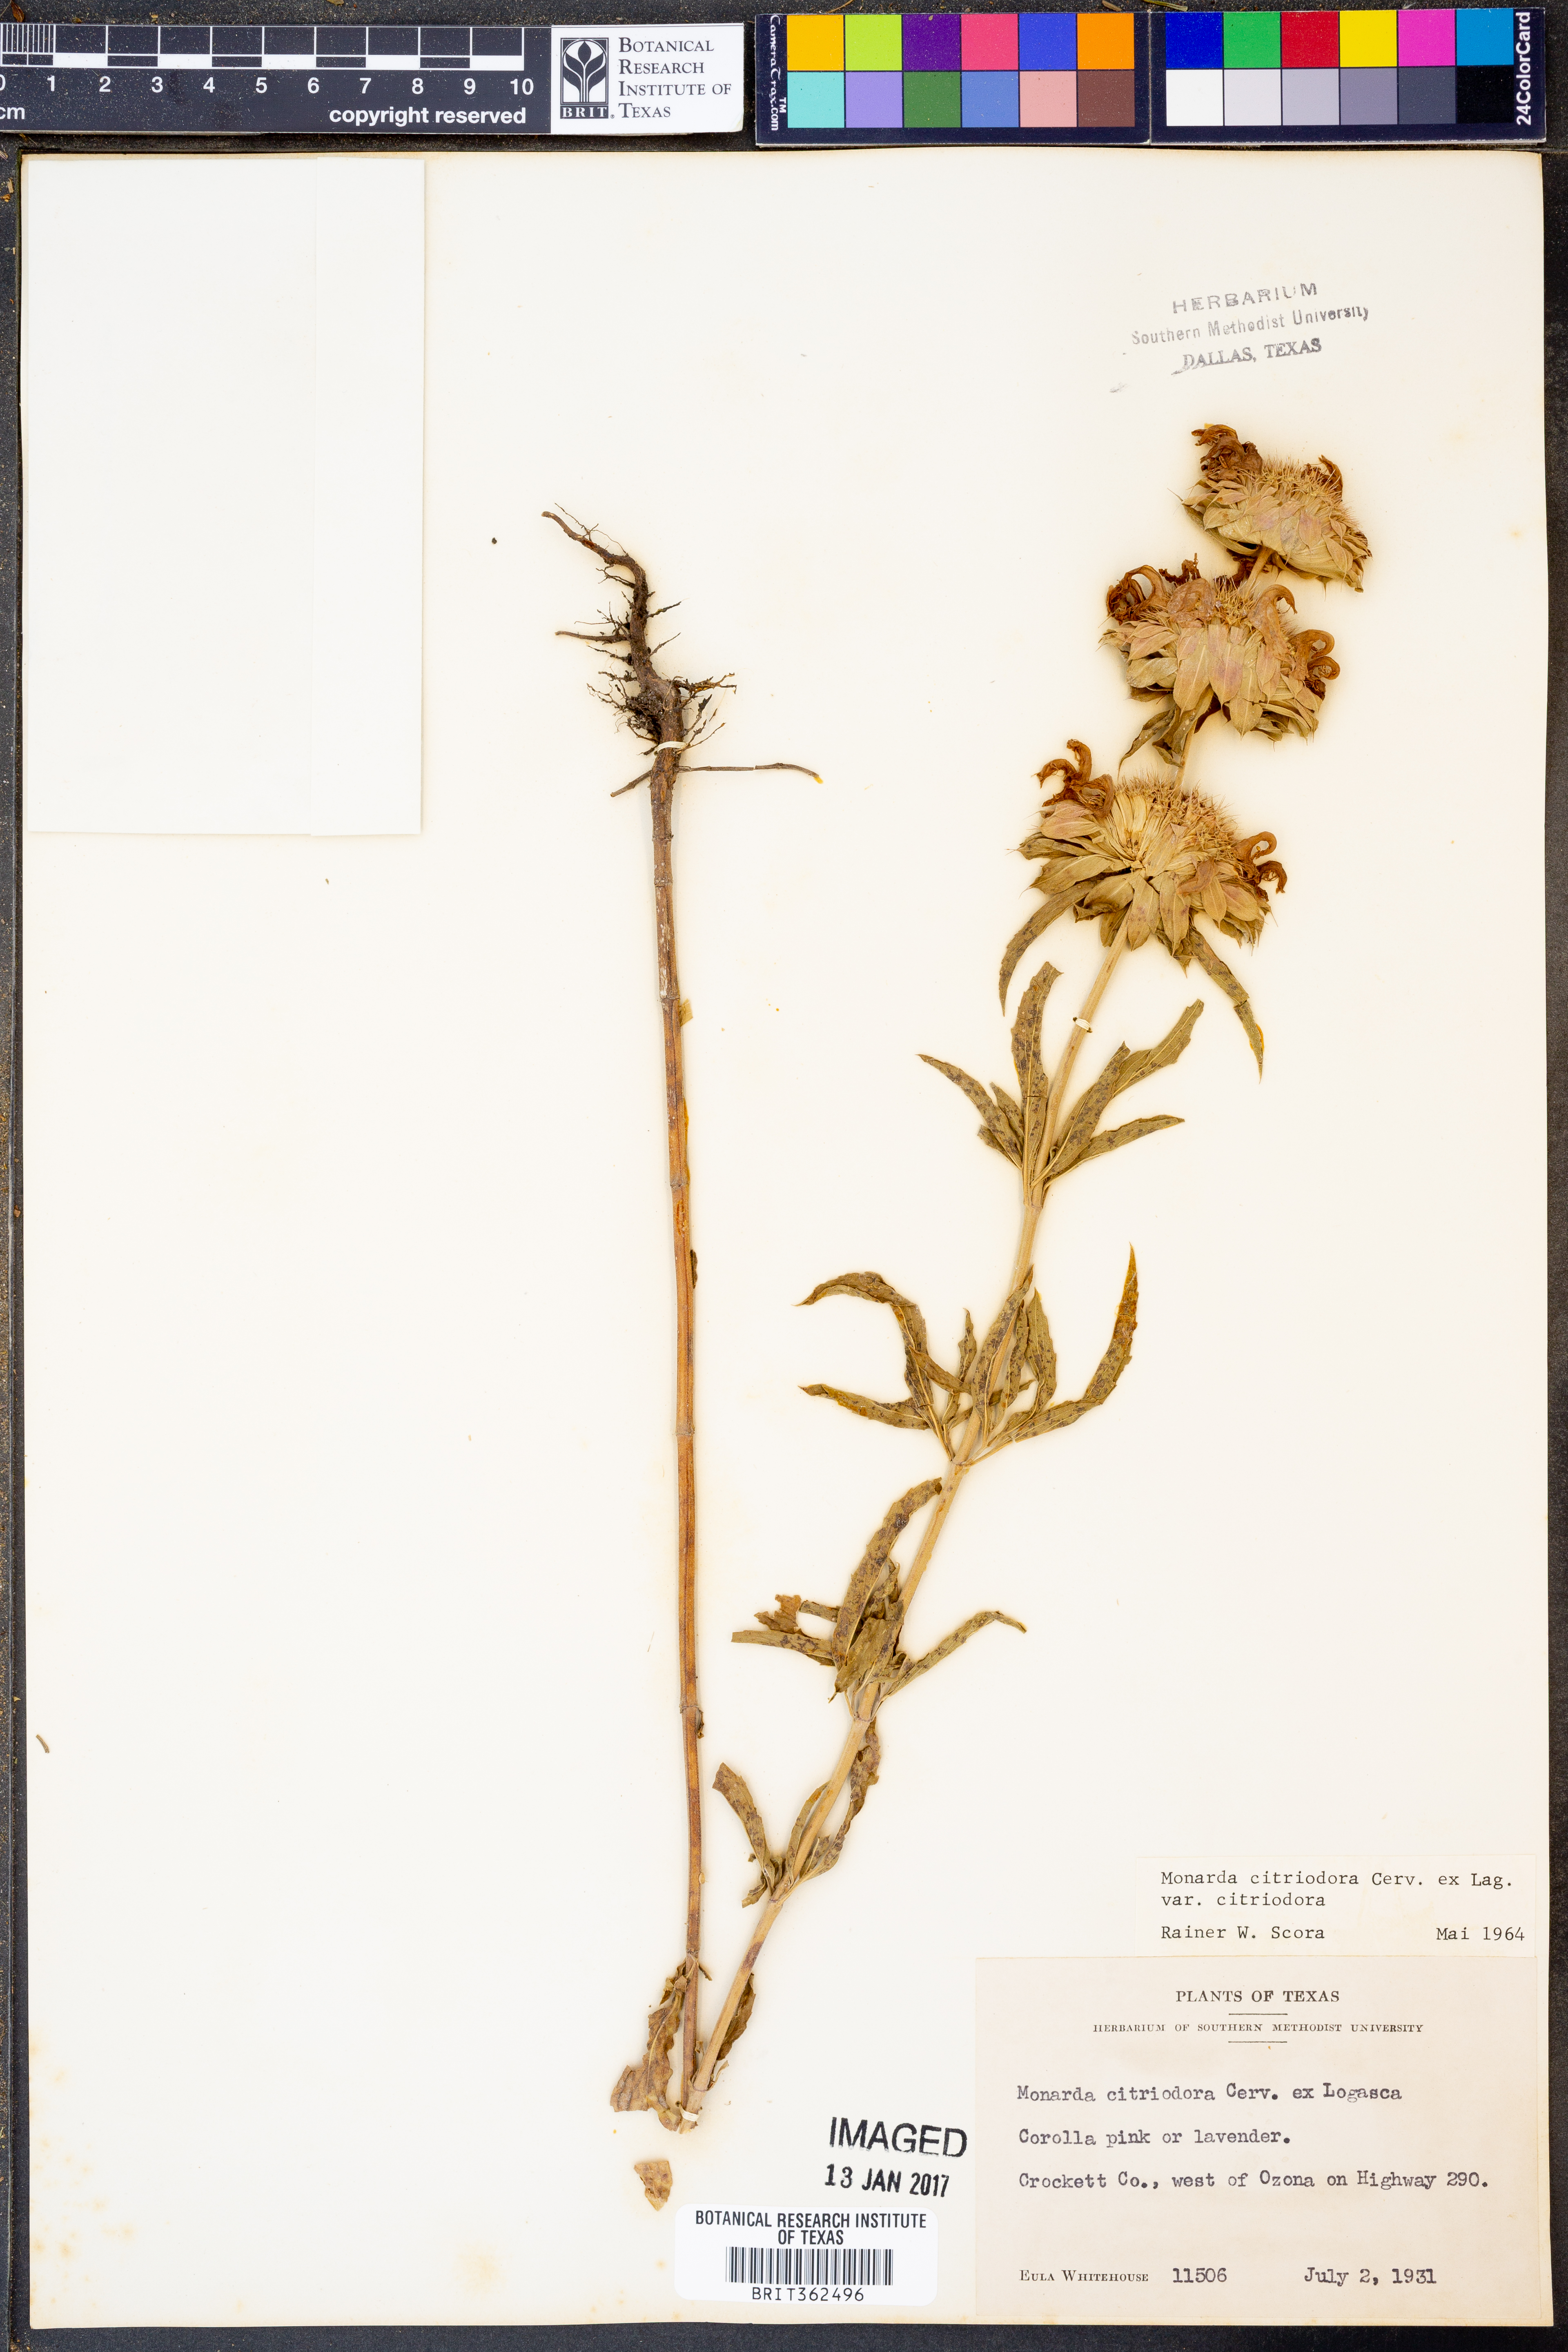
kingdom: Plantae
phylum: Tracheophyta
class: Magnoliopsida
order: Lamiales
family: Lamiaceae
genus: Monarda
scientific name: Monarda citriodora
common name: Lemon beebalm
